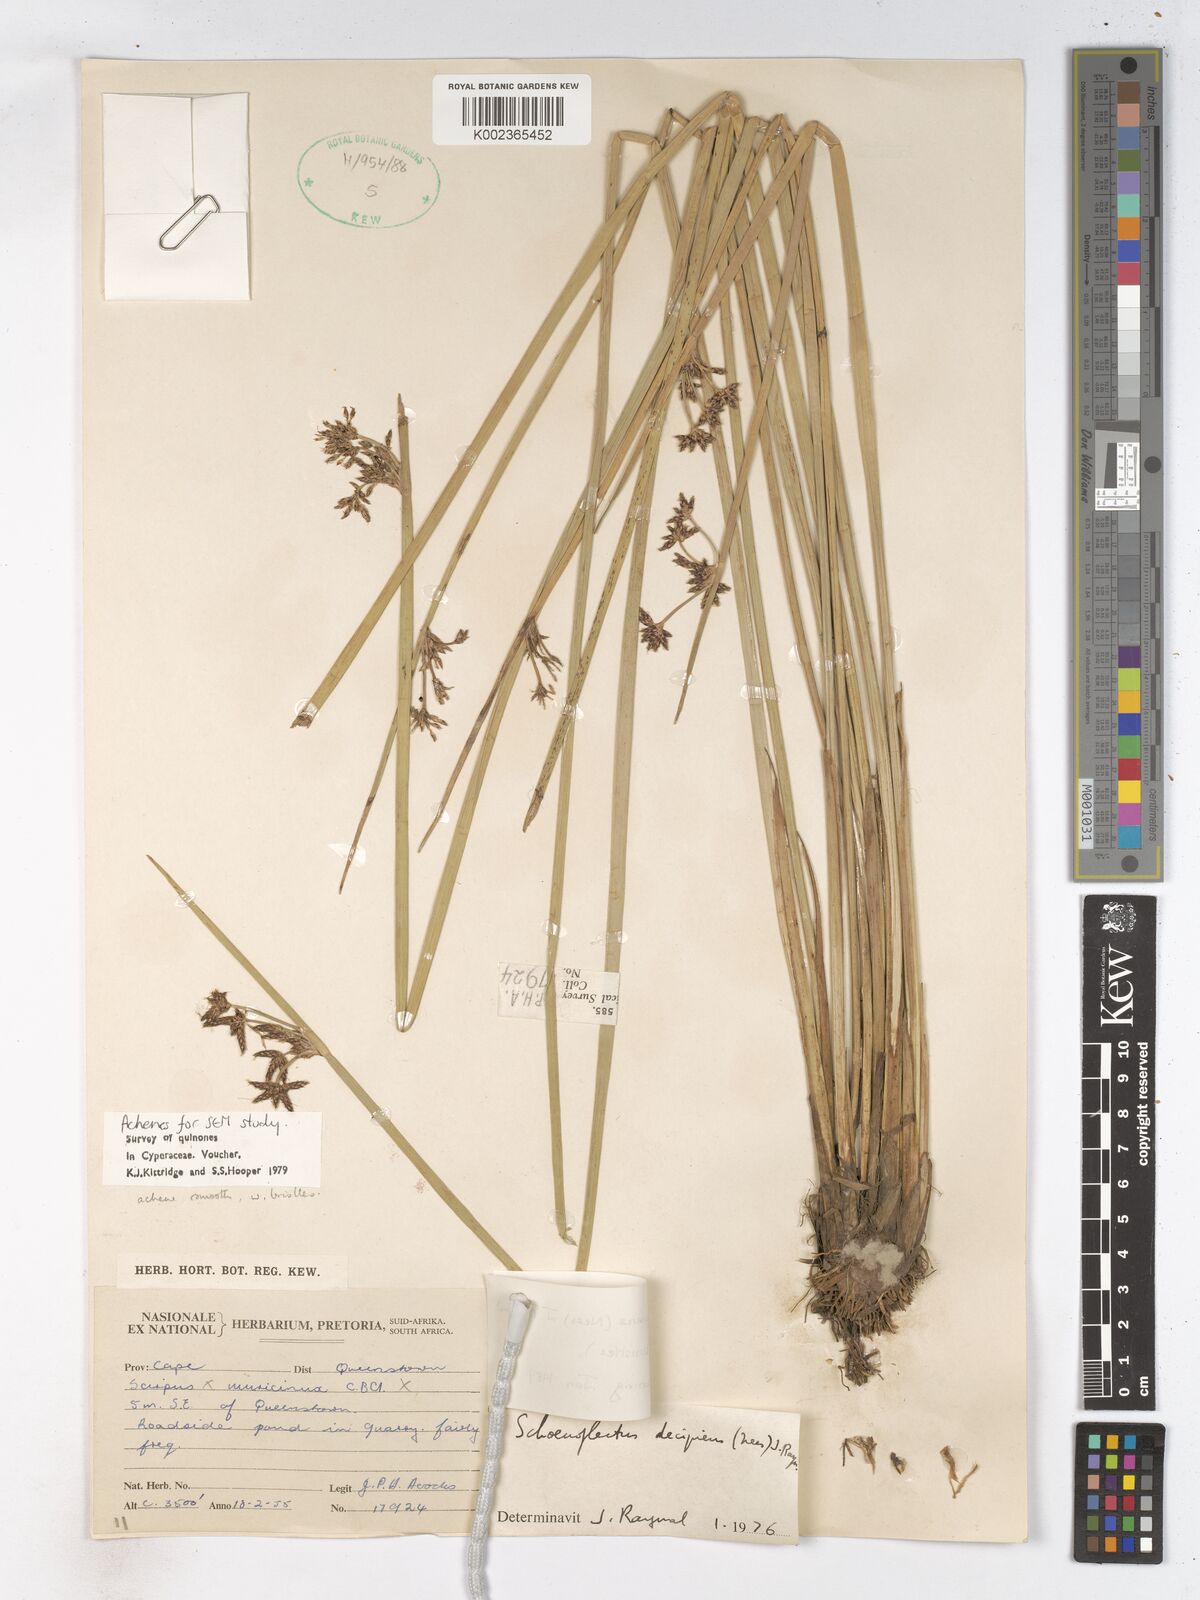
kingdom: Plantae
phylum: Tracheophyta
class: Liliopsida
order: Poales
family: Cyperaceae
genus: Schoenoplectiella
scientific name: Schoenoplectiella paludicola
